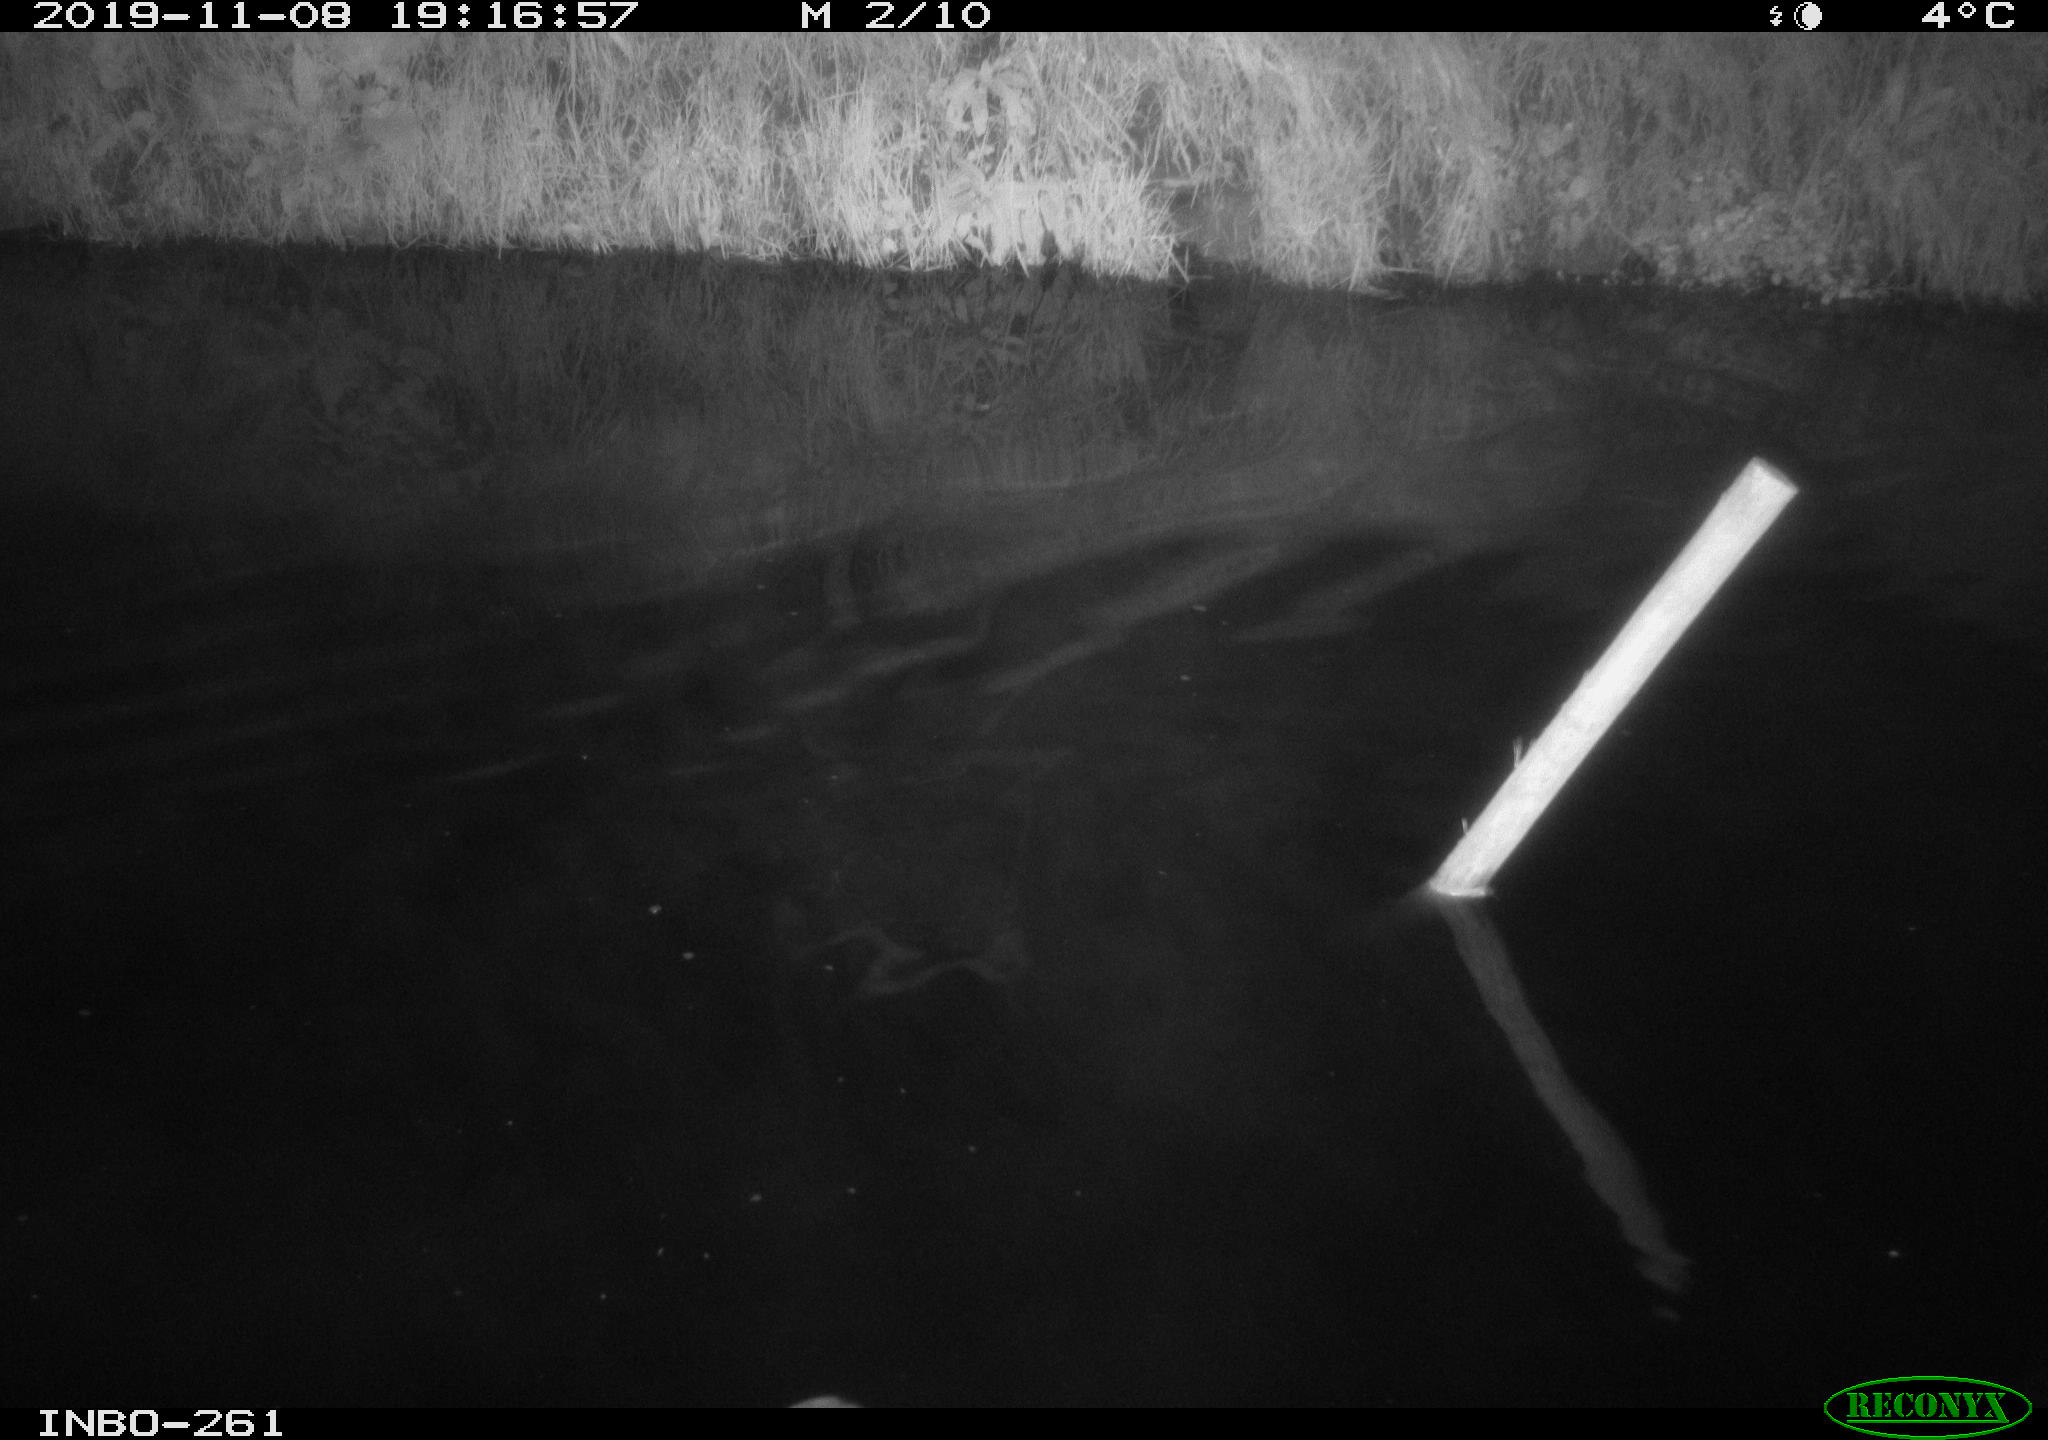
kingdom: Animalia
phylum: Chordata
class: Aves
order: Anseriformes
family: Anatidae
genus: Anas
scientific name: Anas platyrhynchos
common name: Mallard
